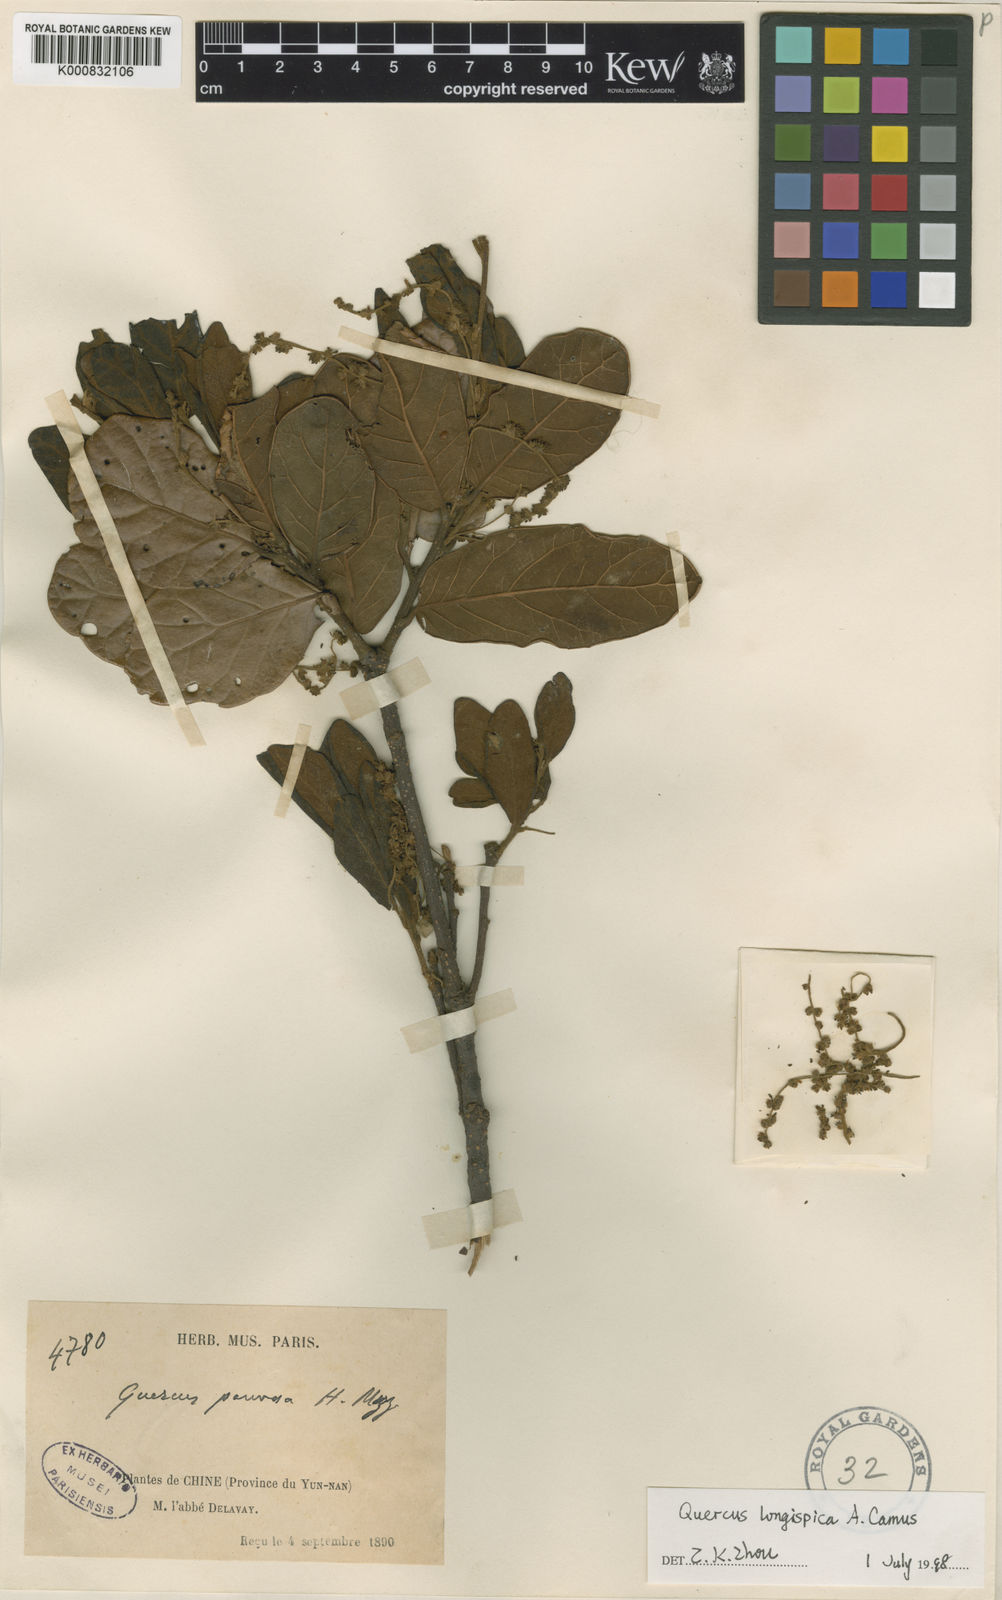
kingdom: Plantae
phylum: Tracheophyta
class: Magnoliopsida
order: Fagales
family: Fagaceae
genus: Quercus
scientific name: Quercus pannosa
